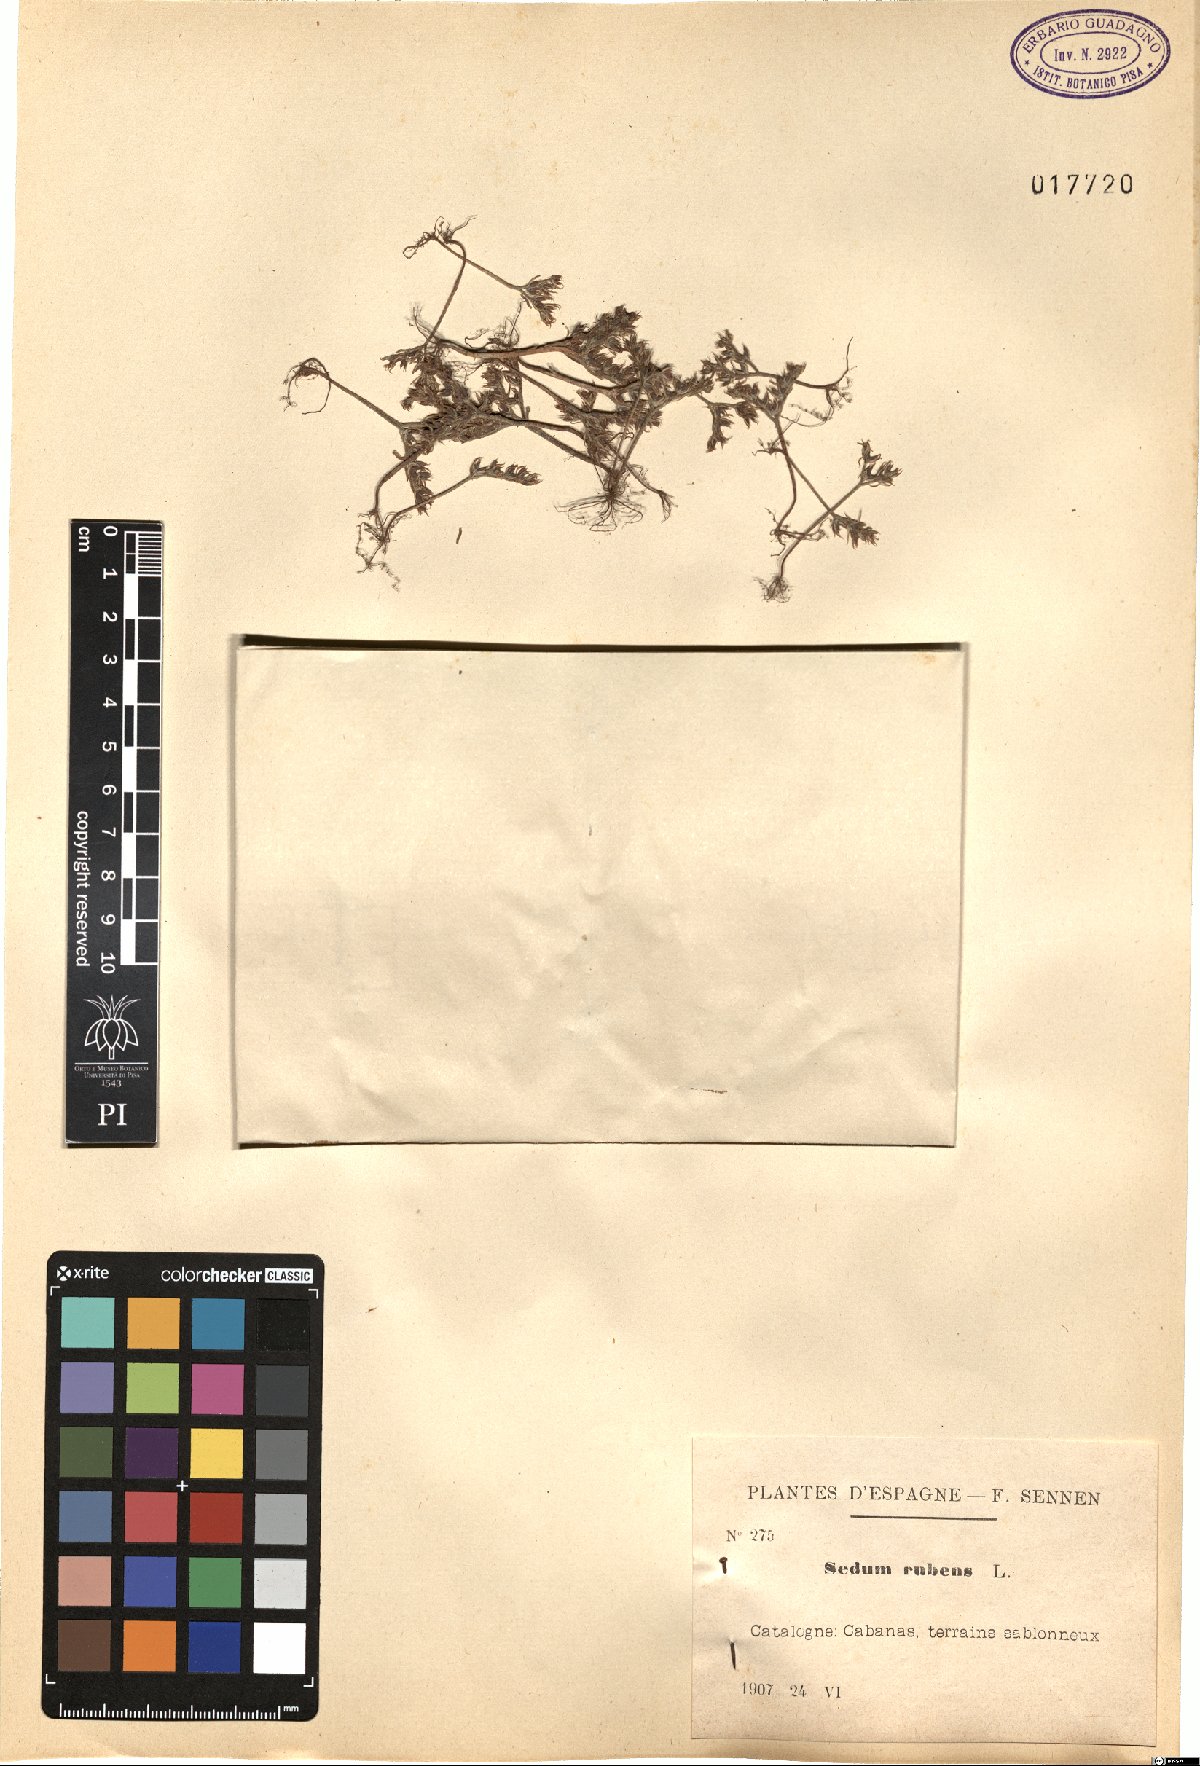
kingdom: Plantae
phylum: Tracheophyta
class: Magnoliopsida
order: Saxifragales
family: Crassulaceae
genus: Sedum
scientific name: Sedum rubens
